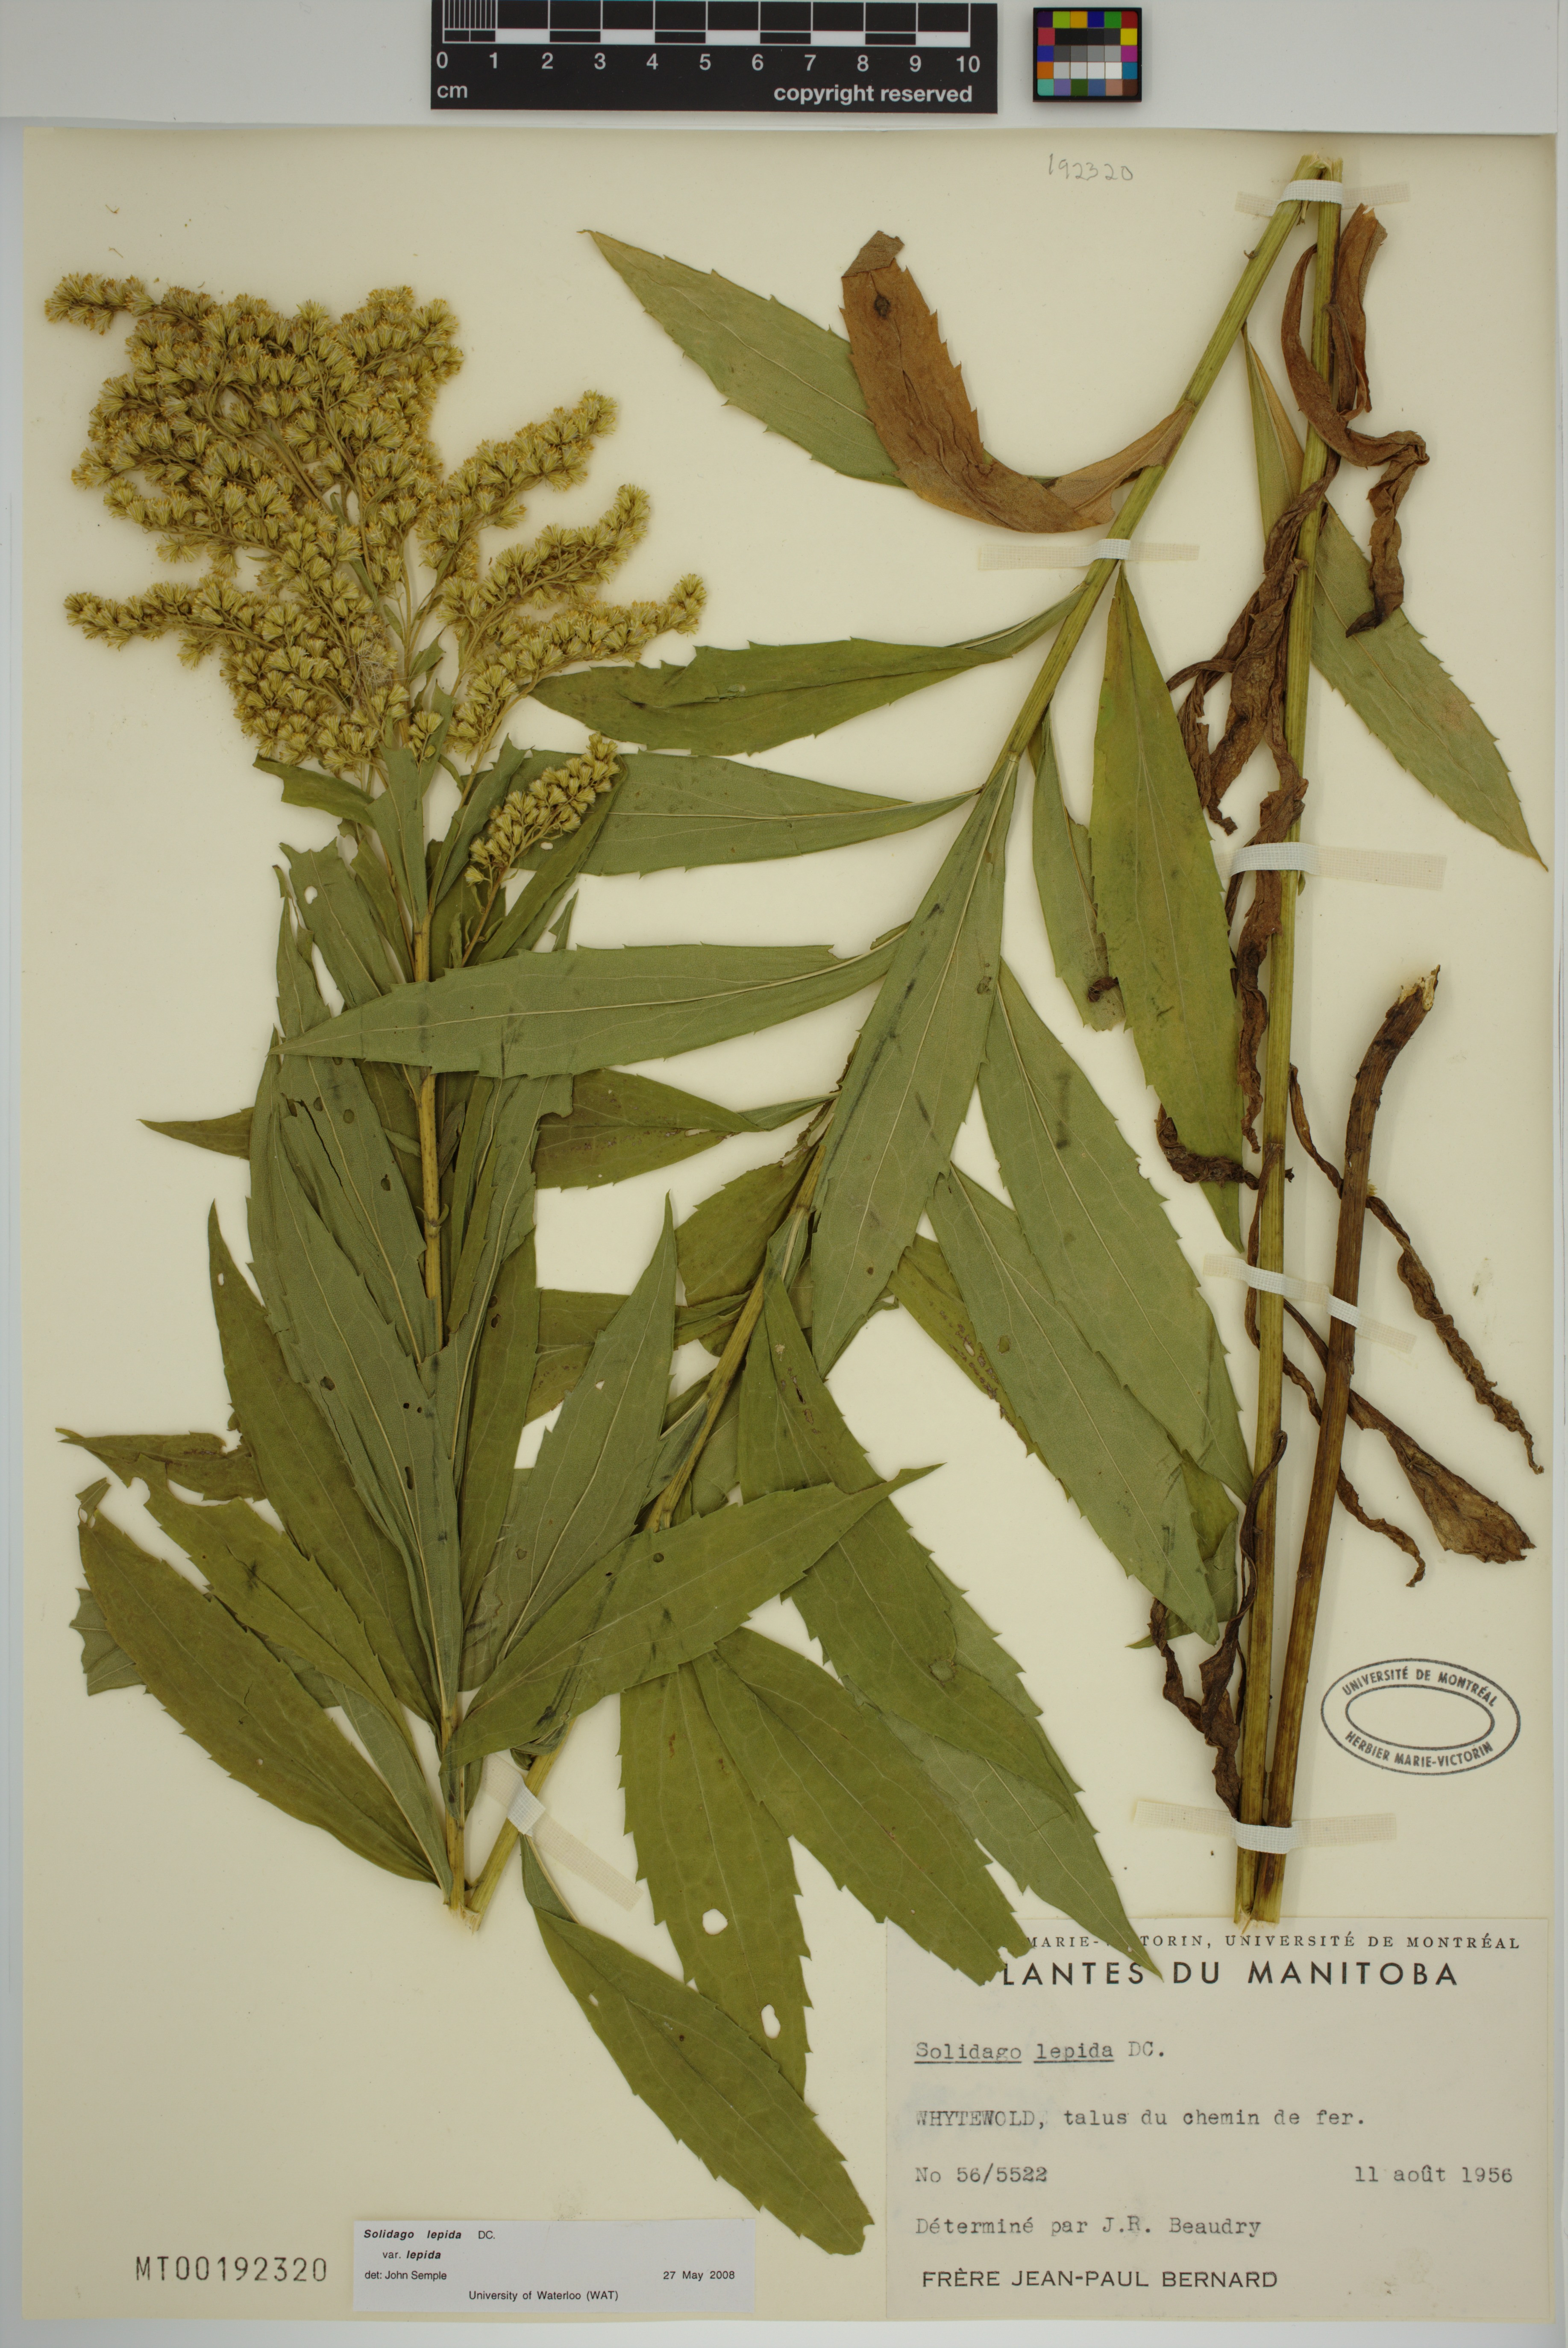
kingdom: Plantae
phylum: Tracheophyta
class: Magnoliopsida
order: Asterales
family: Asteraceae
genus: Solidago
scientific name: Solidago lepida
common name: Western canada goldenrod
